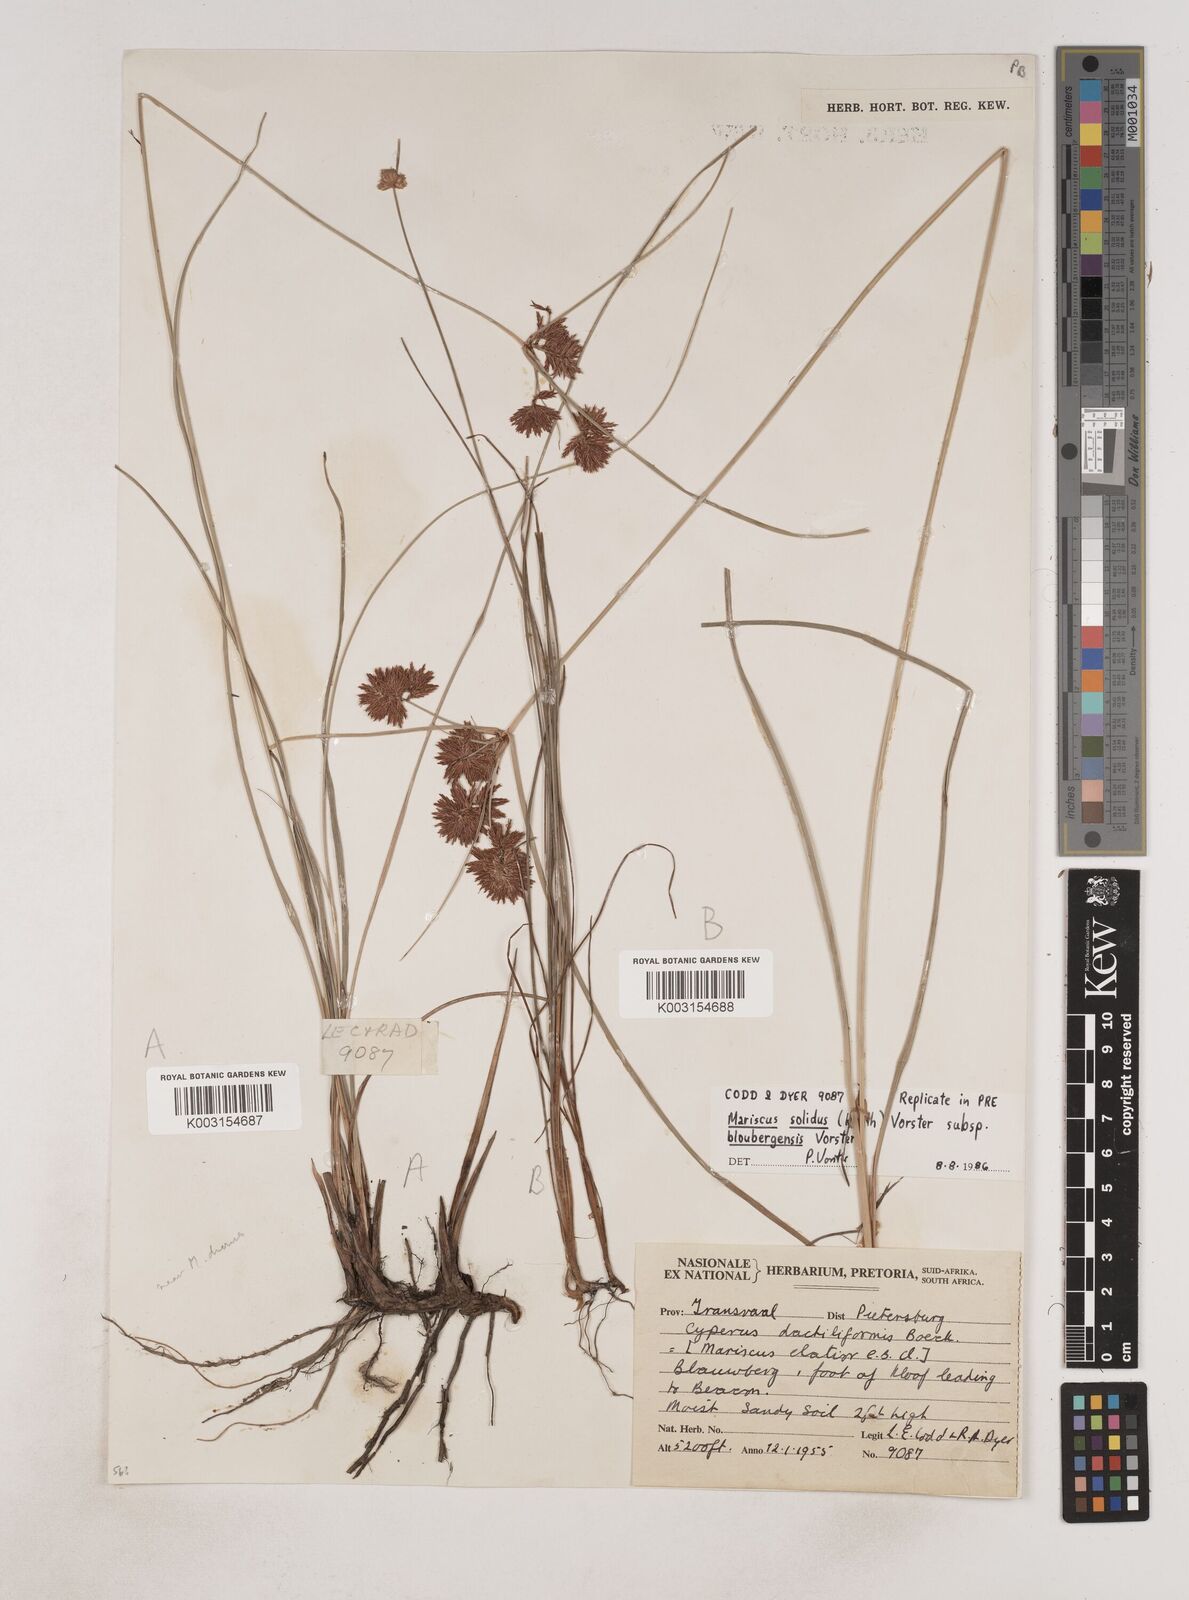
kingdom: Plantae
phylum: Tracheophyta
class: Liliopsida
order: Poales
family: Cyperaceae
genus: Cyperus
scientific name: Cyperus solidus
